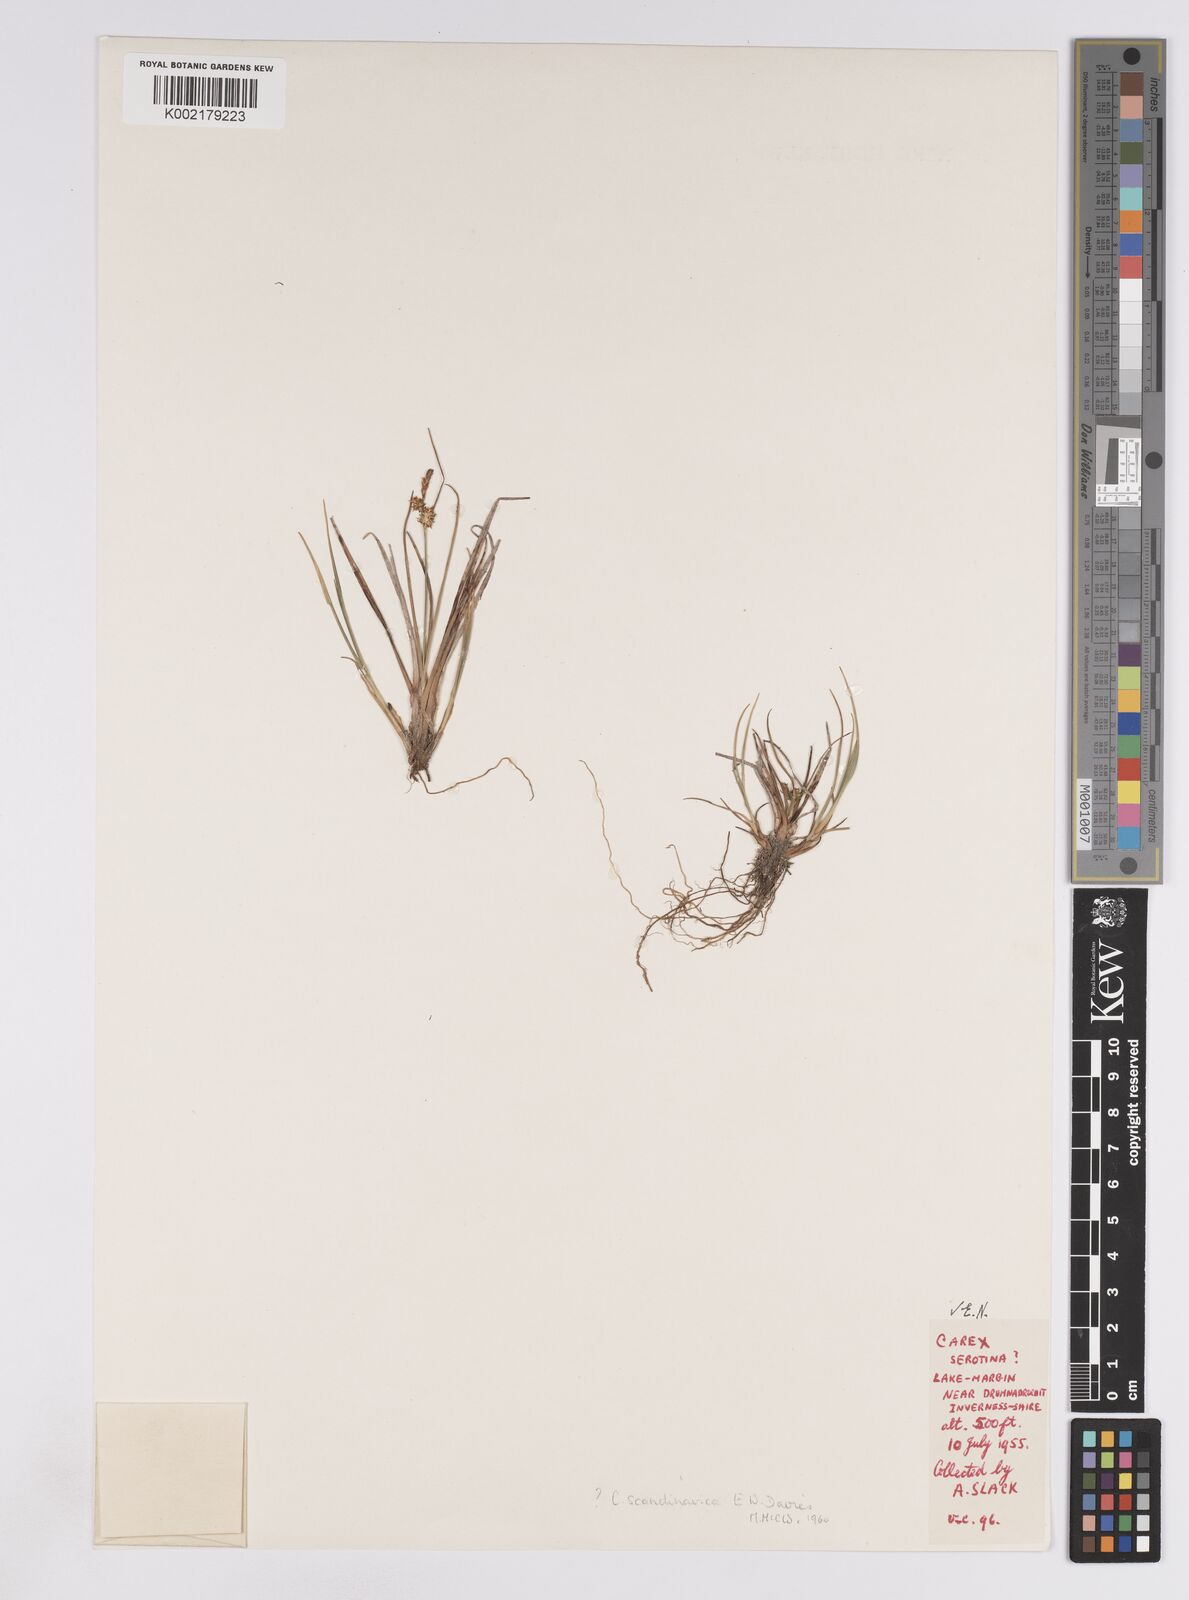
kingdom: Plantae
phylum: Tracheophyta
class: Liliopsida
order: Poales
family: Cyperaceae
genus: Carex
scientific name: Carex oederi
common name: Common & small-fruited yellow-sedge
